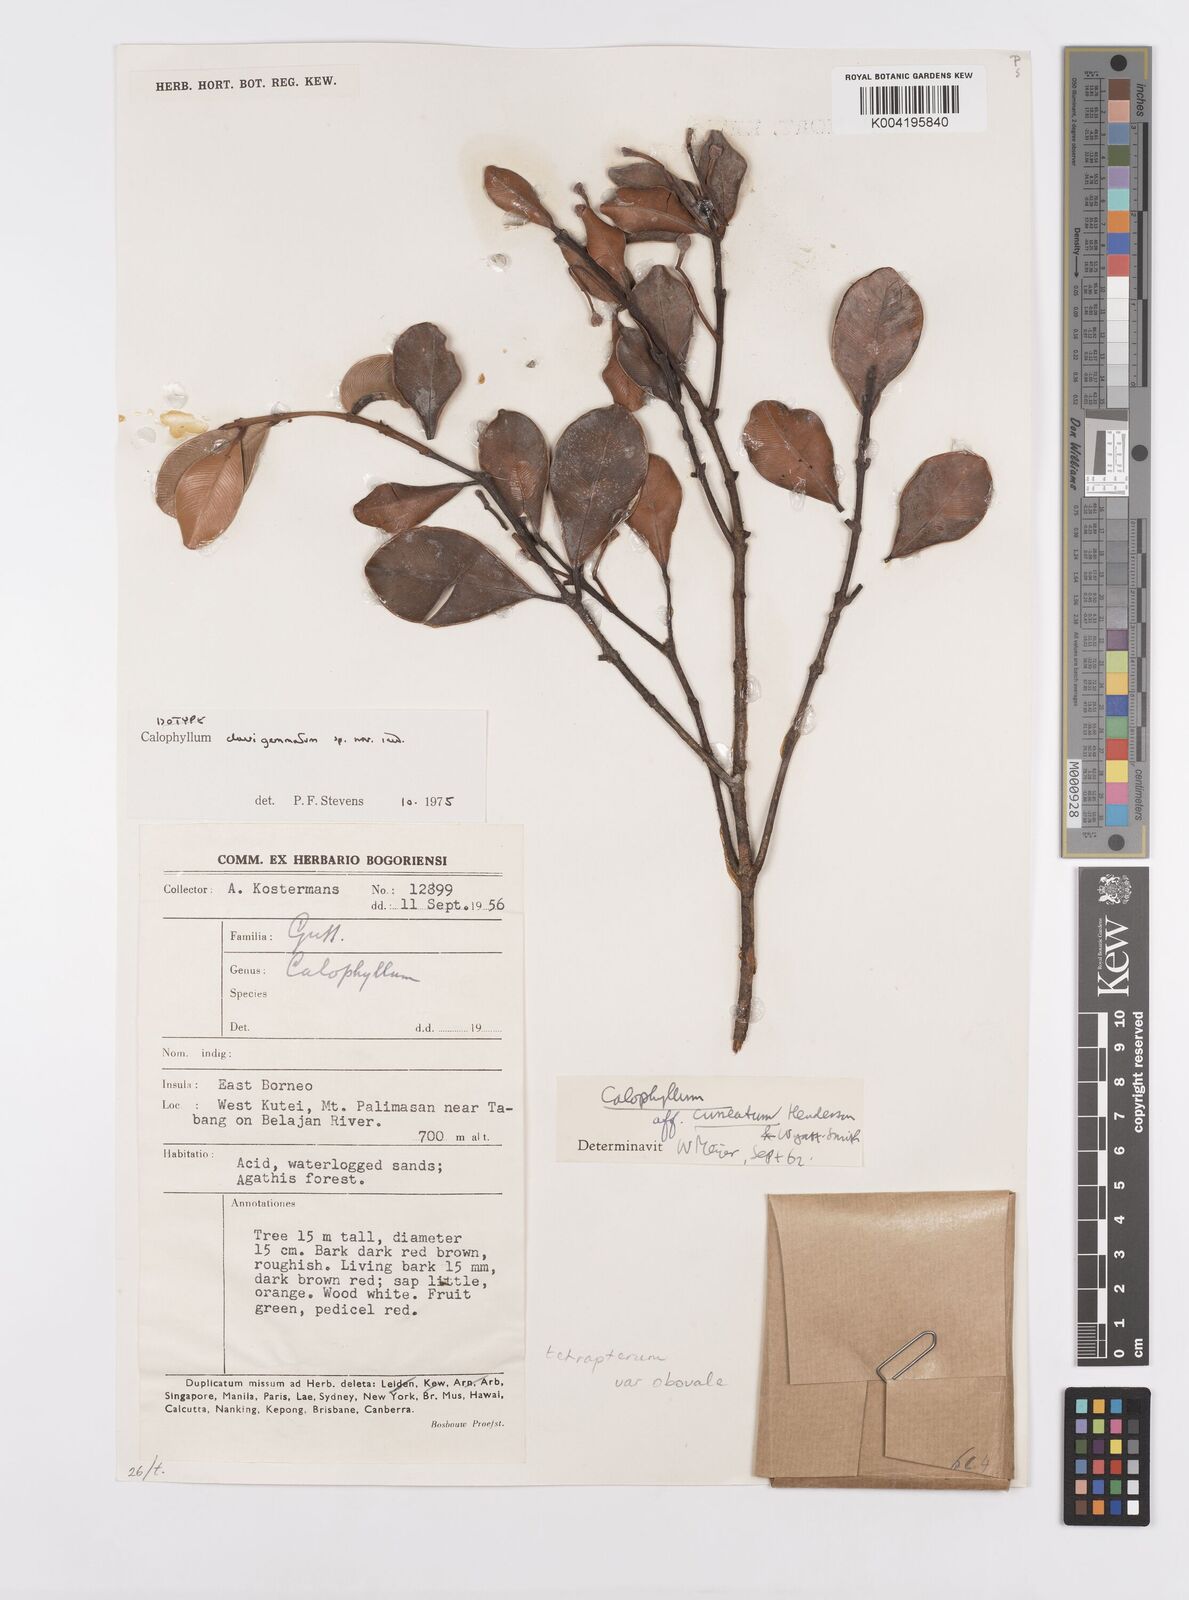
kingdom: Plantae
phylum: Tracheophyta
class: Magnoliopsida
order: Malpighiales
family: Calophyllaceae
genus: Calophyllum
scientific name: Calophyllum tetrapterum
